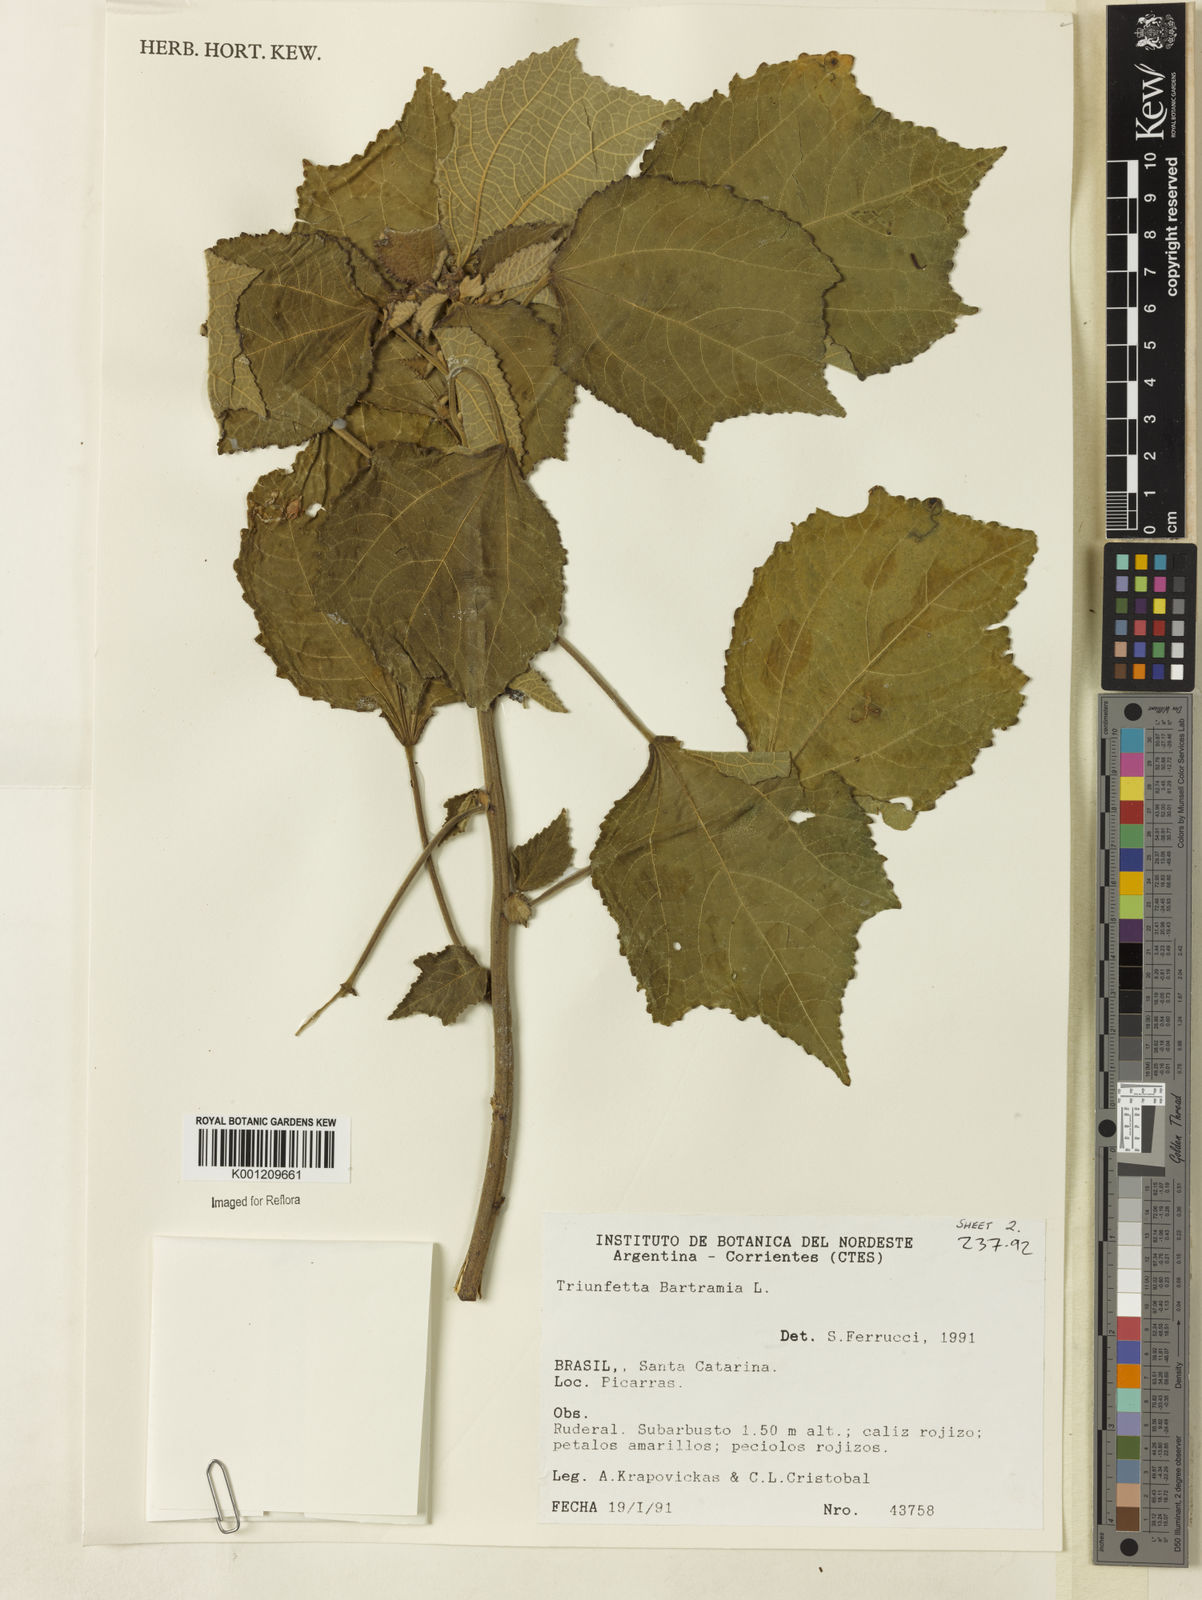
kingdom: Plantae
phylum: Tracheophyta
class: Magnoliopsida
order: Malvales
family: Malvaceae
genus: Triumfetta
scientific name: Triumfetta
